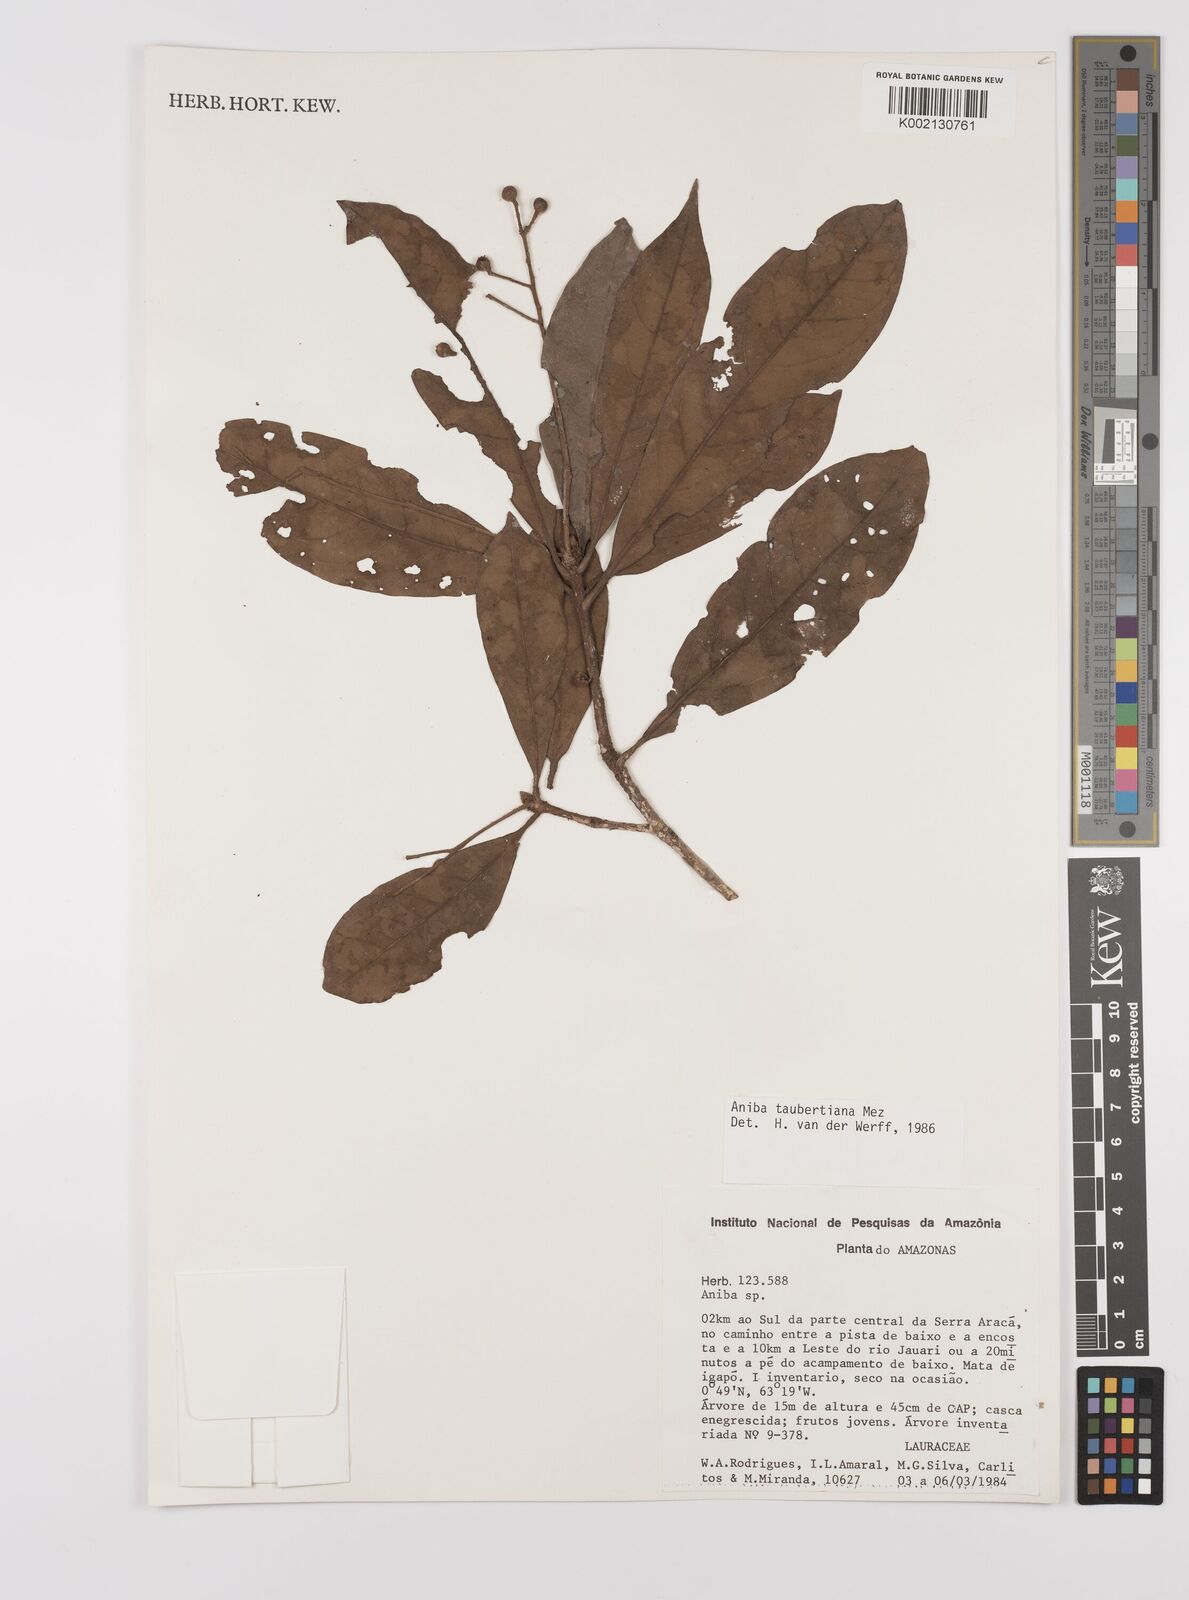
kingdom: Plantae
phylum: Tracheophyta
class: Magnoliopsida
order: Laurales
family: Lauraceae
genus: Aniba
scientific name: Aniba taubertiana
